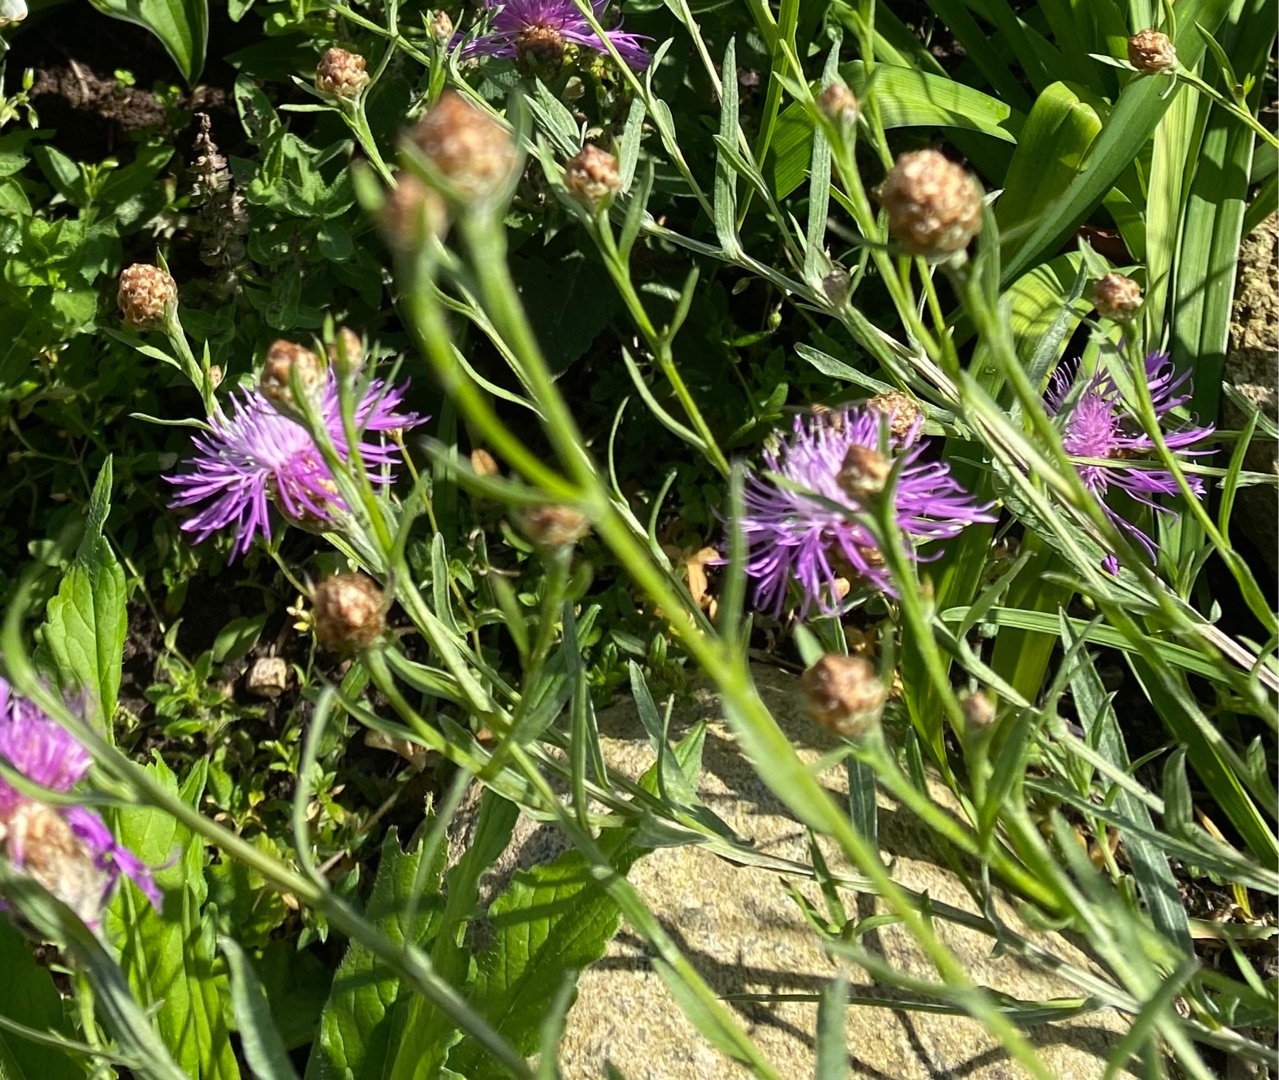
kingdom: Plantae
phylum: Tracheophyta
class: Magnoliopsida
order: Asterales
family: Asteraceae
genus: Centaurea
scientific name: Centaurea jacea
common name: Almindelig knopurt
